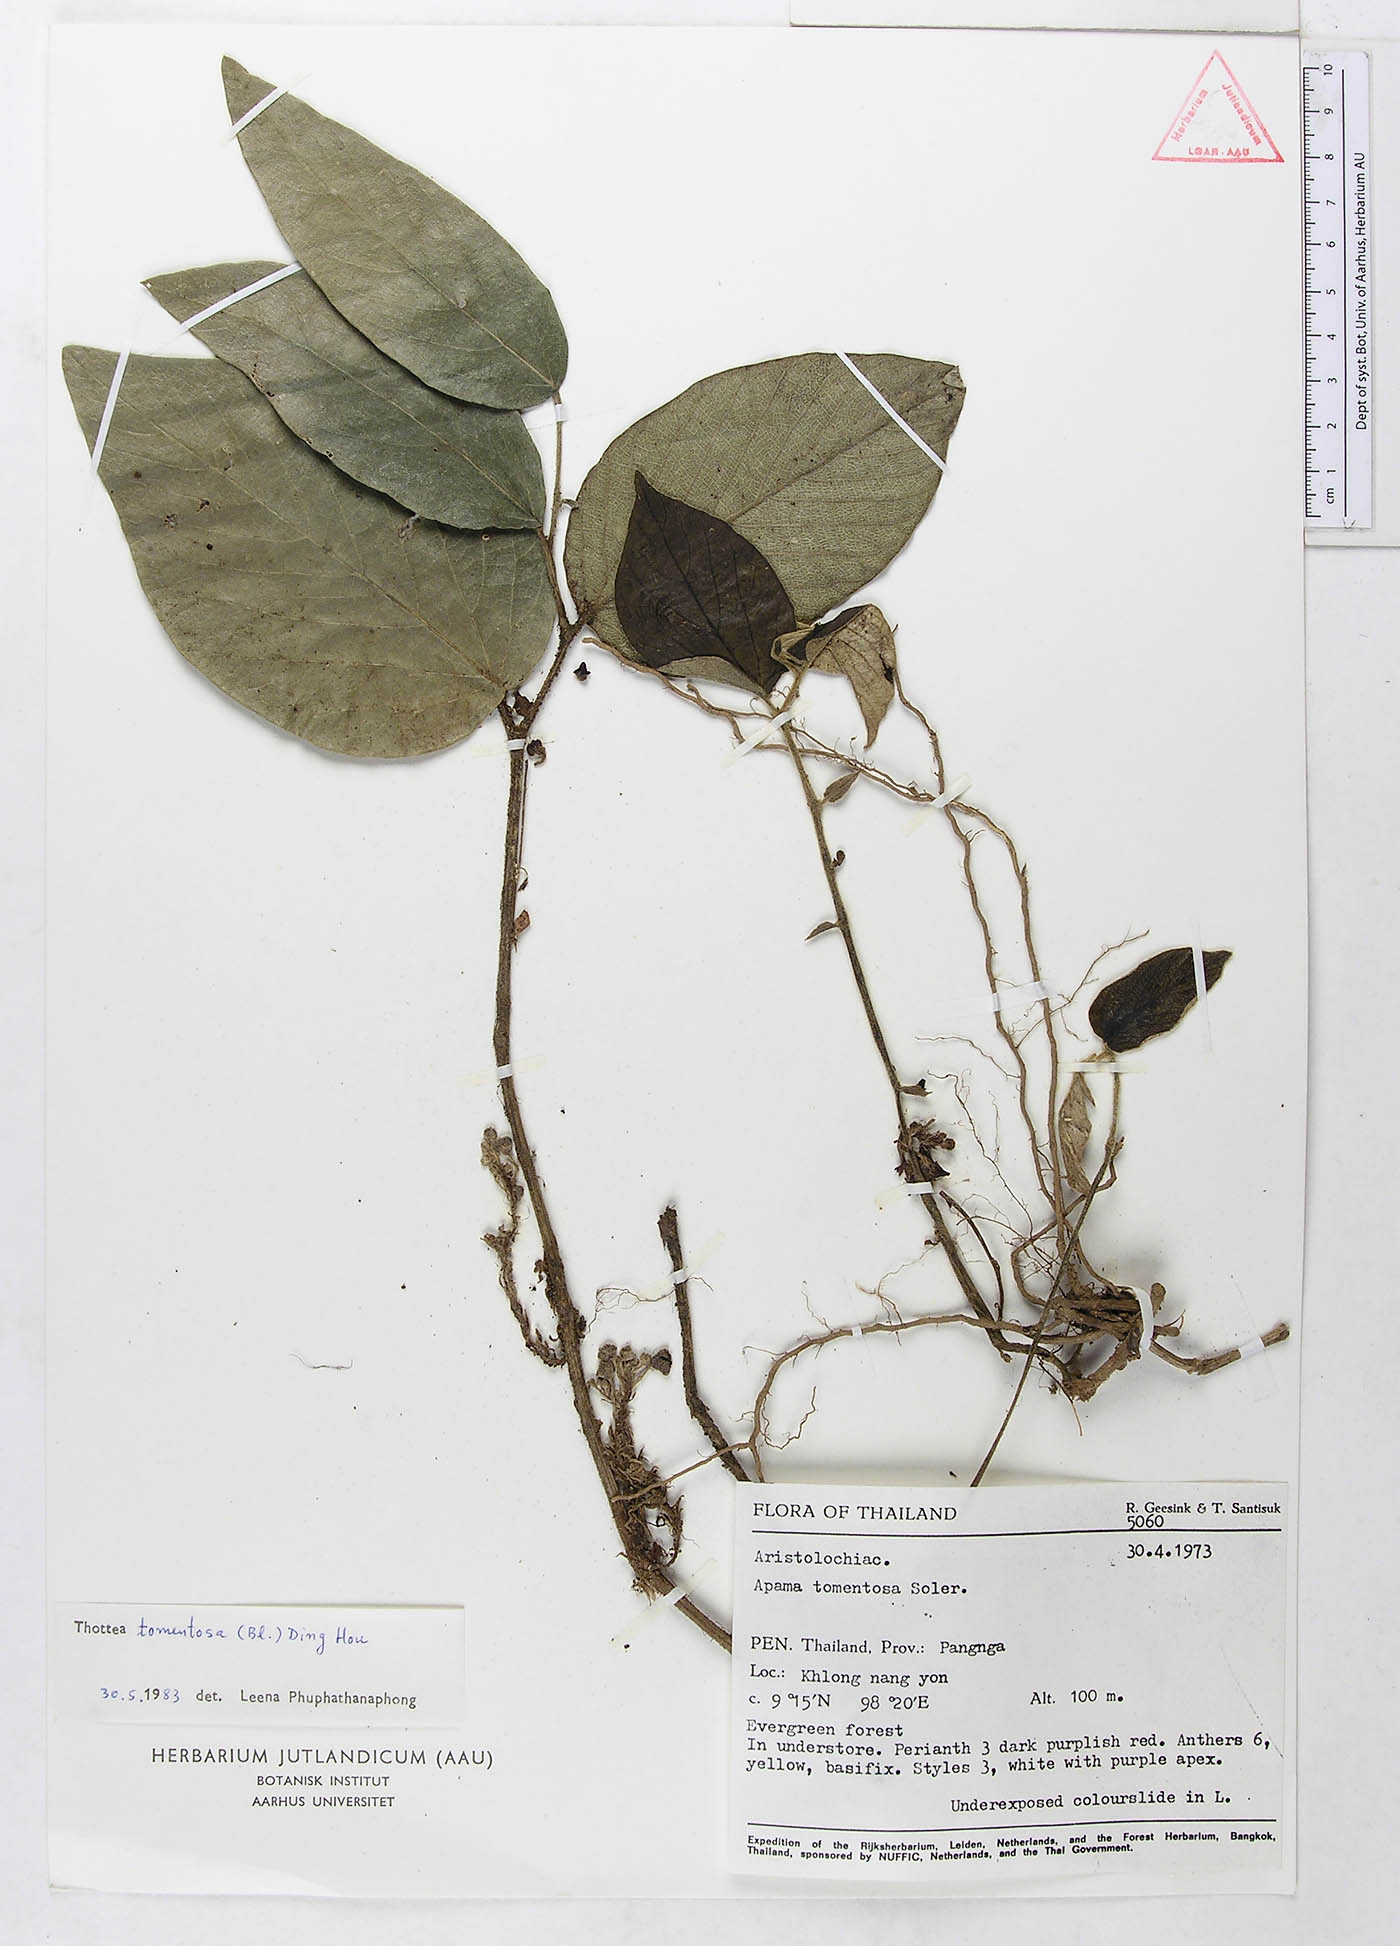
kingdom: Plantae
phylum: Tracheophyta
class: Magnoliopsida
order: Piperales
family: Aristolochiaceae
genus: Thottea
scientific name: Thottea tomentosa
